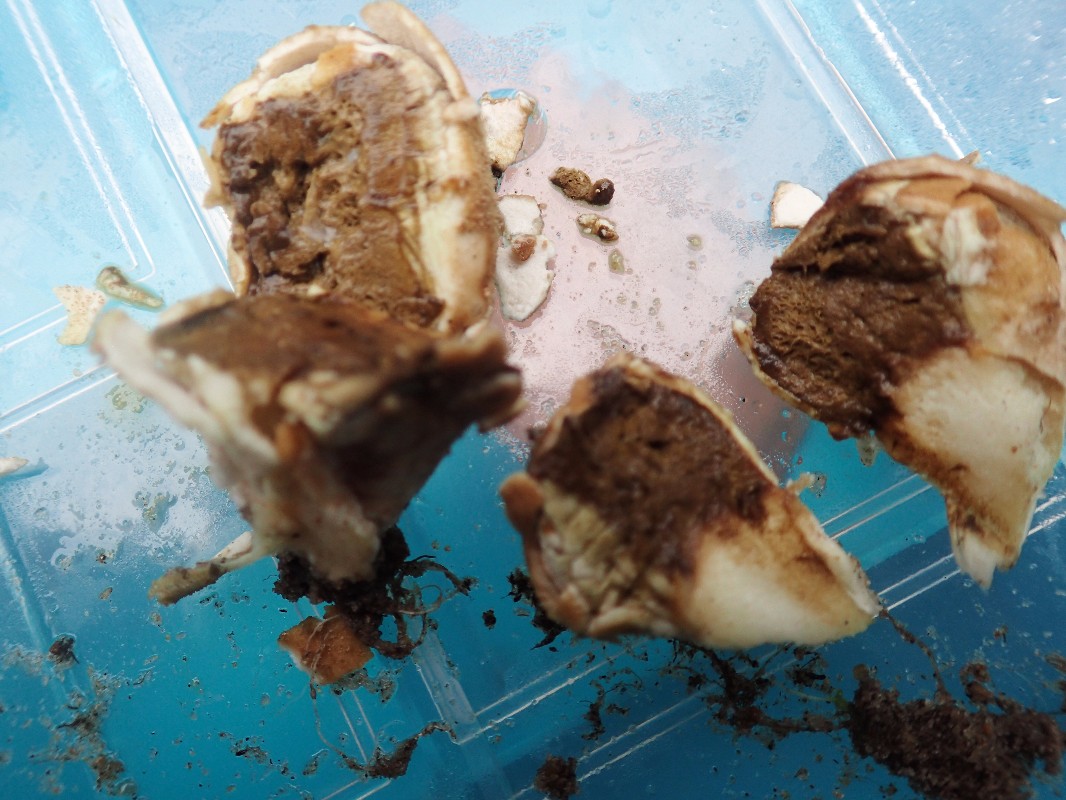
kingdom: Fungi
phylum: Basidiomycota
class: Agaricomycetes
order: Agaricales
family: Lycoperdaceae
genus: Lycoperdon
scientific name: Lycoperdon lividum
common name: mark-støvbold
